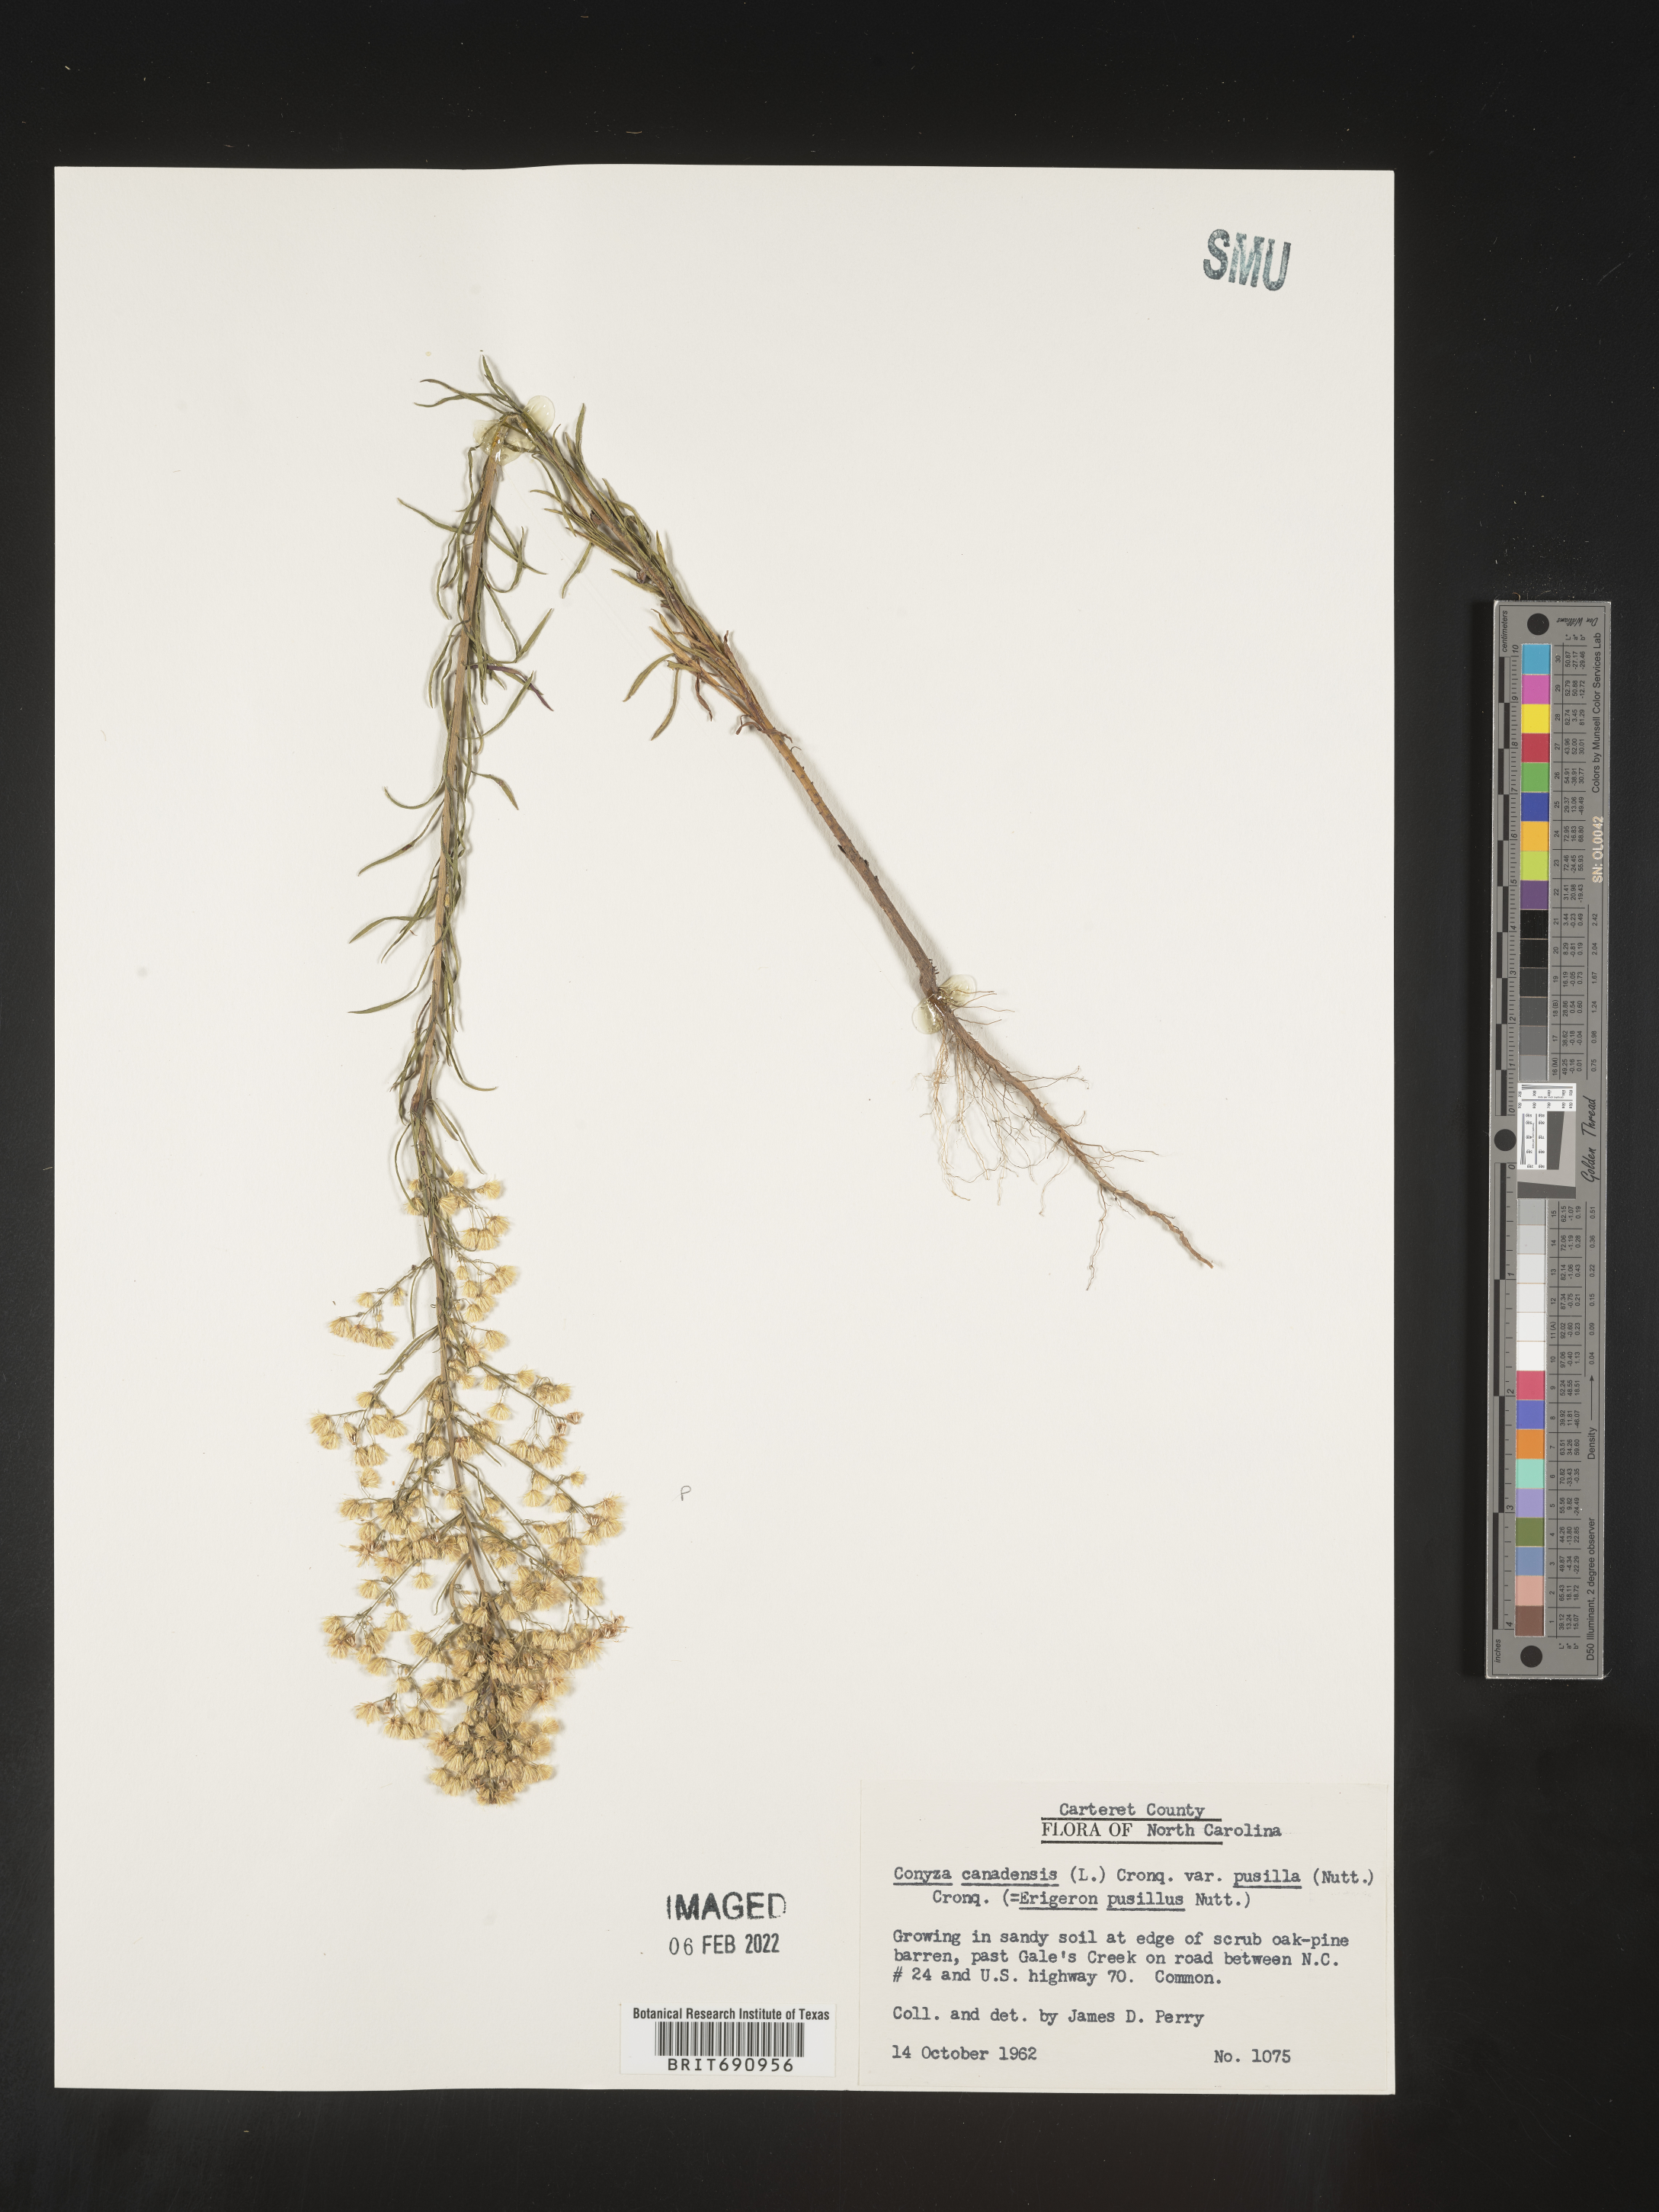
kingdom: Plantae
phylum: Tracheophyta
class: Magnoliopsida
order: Asterales
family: Asteraceae
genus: Erigeron
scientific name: Erigeron canadensis
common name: Canadian fleabane
